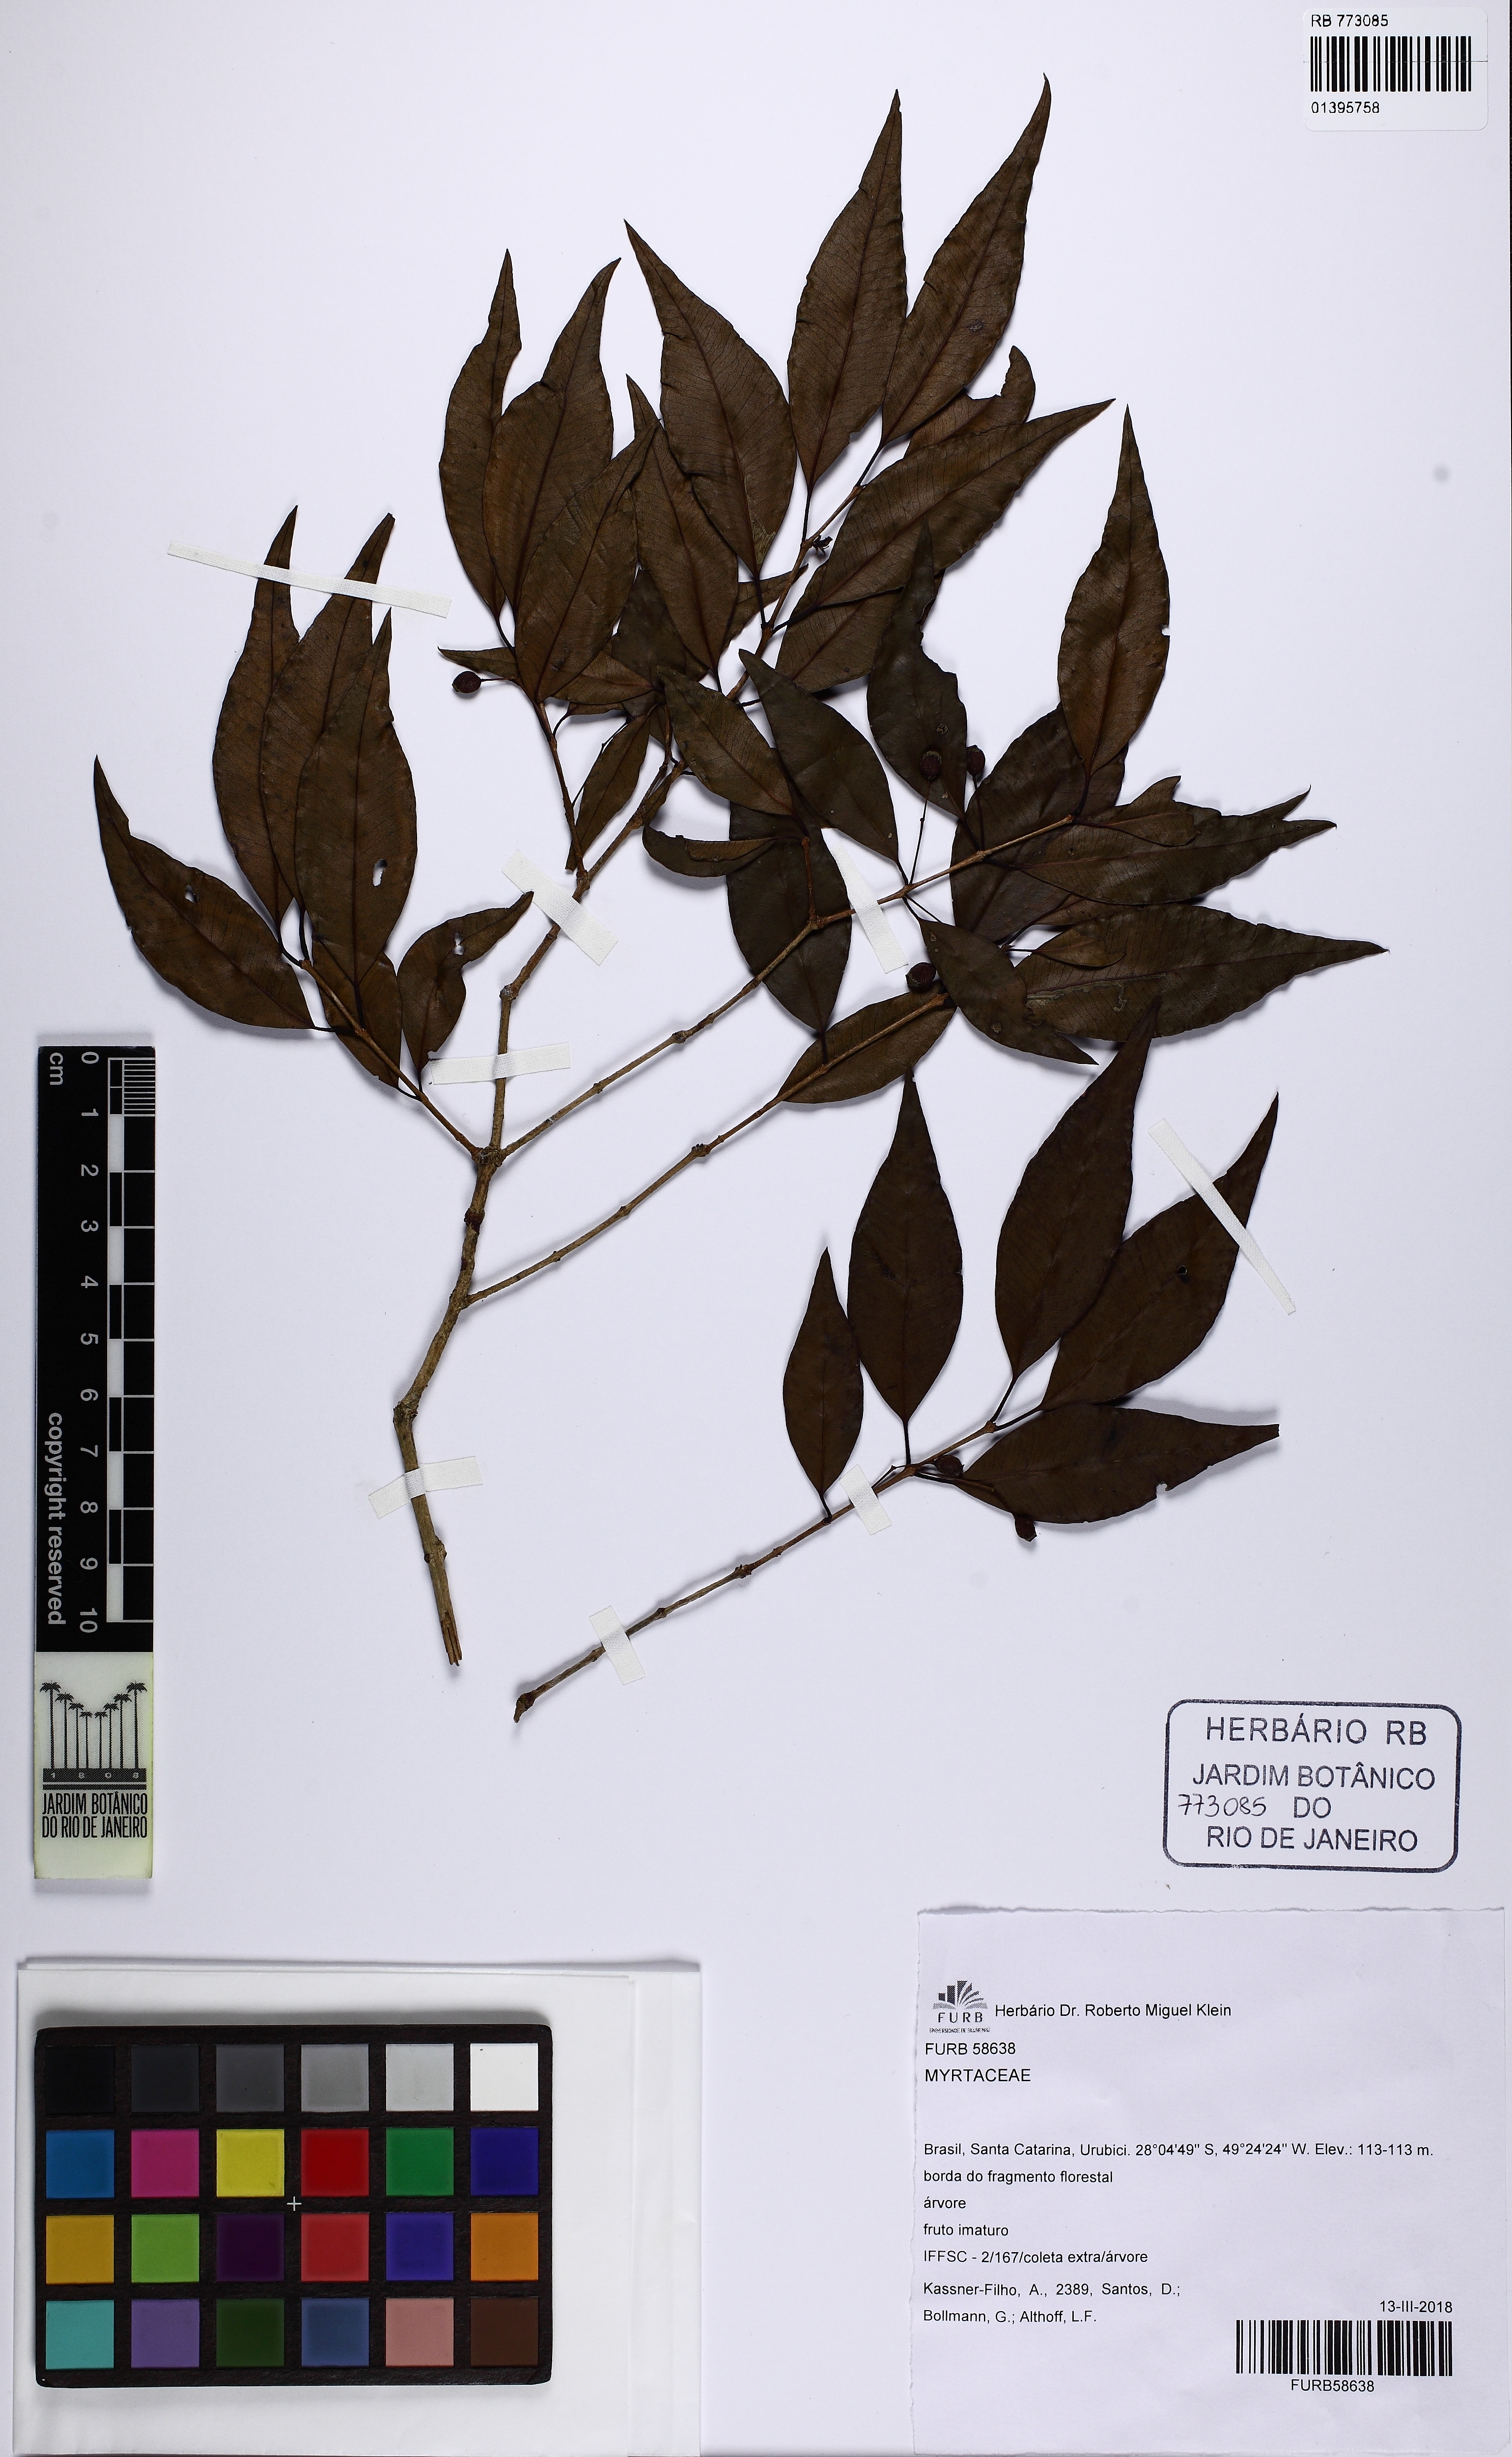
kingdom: Plantae
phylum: Tracheophyta
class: Magnoliopsida
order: Myrtales
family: Myrtaceae
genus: Blepharocalyx
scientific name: Blepharocalyx salicifolius
